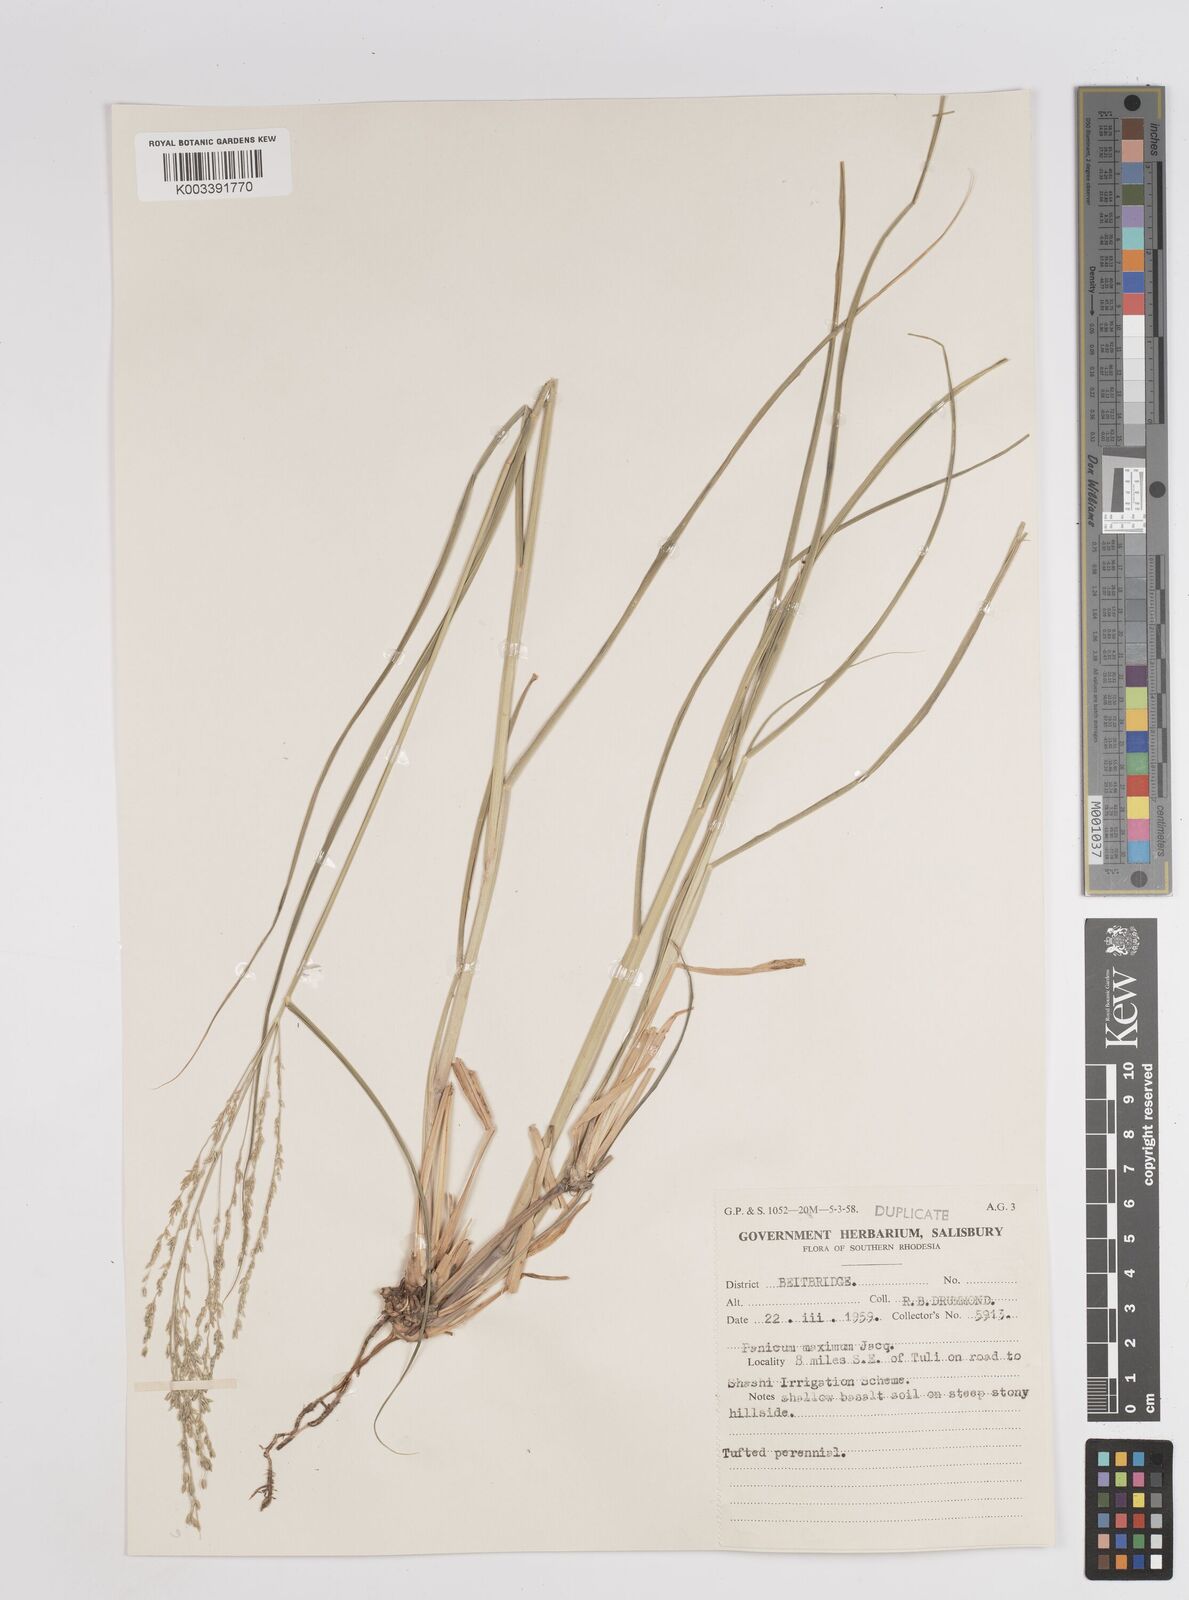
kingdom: Plantae
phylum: Tracheophyta
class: Liliopsida
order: Poales
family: Poaceae
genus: Megathyrsus
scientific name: Megathyrsus maximus
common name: Guineagrass
